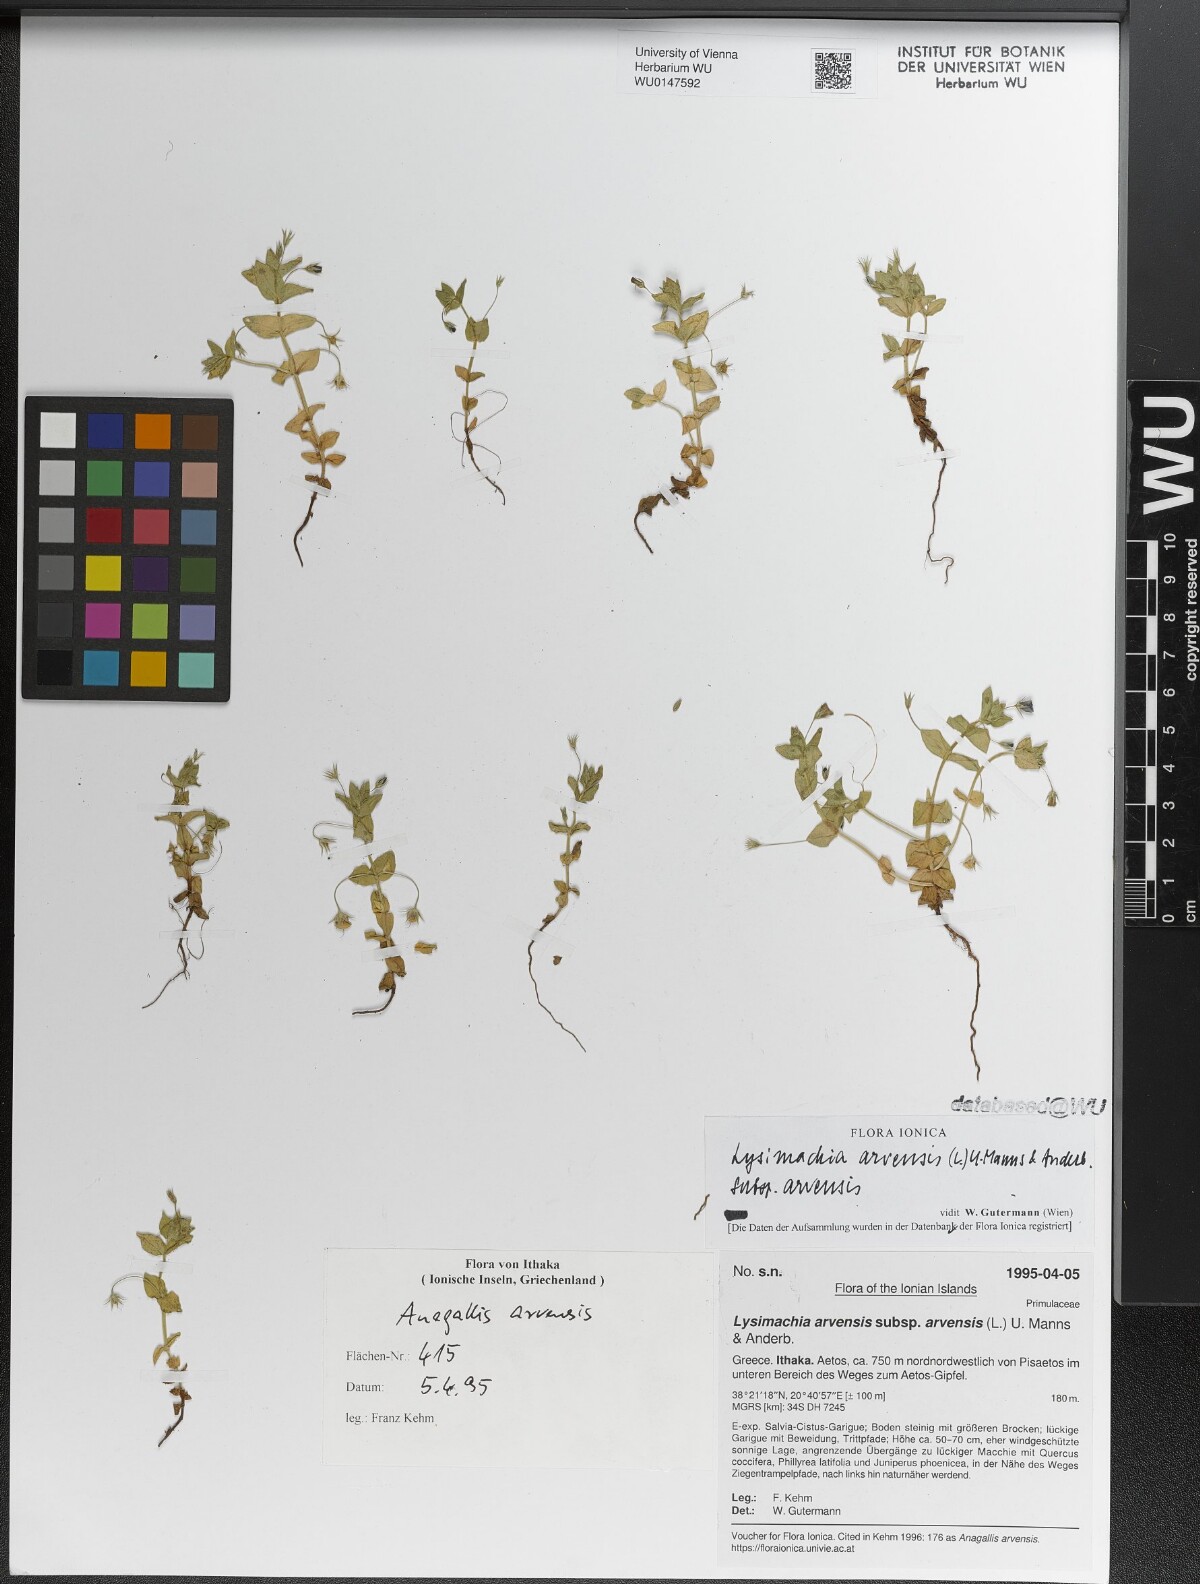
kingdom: Plantae
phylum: Tracheophyta
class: Magnoliopsida
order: Ericales
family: Primulaceae
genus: Lysimachia
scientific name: Lysimachia arvensis
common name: Scarlet pimpernel
